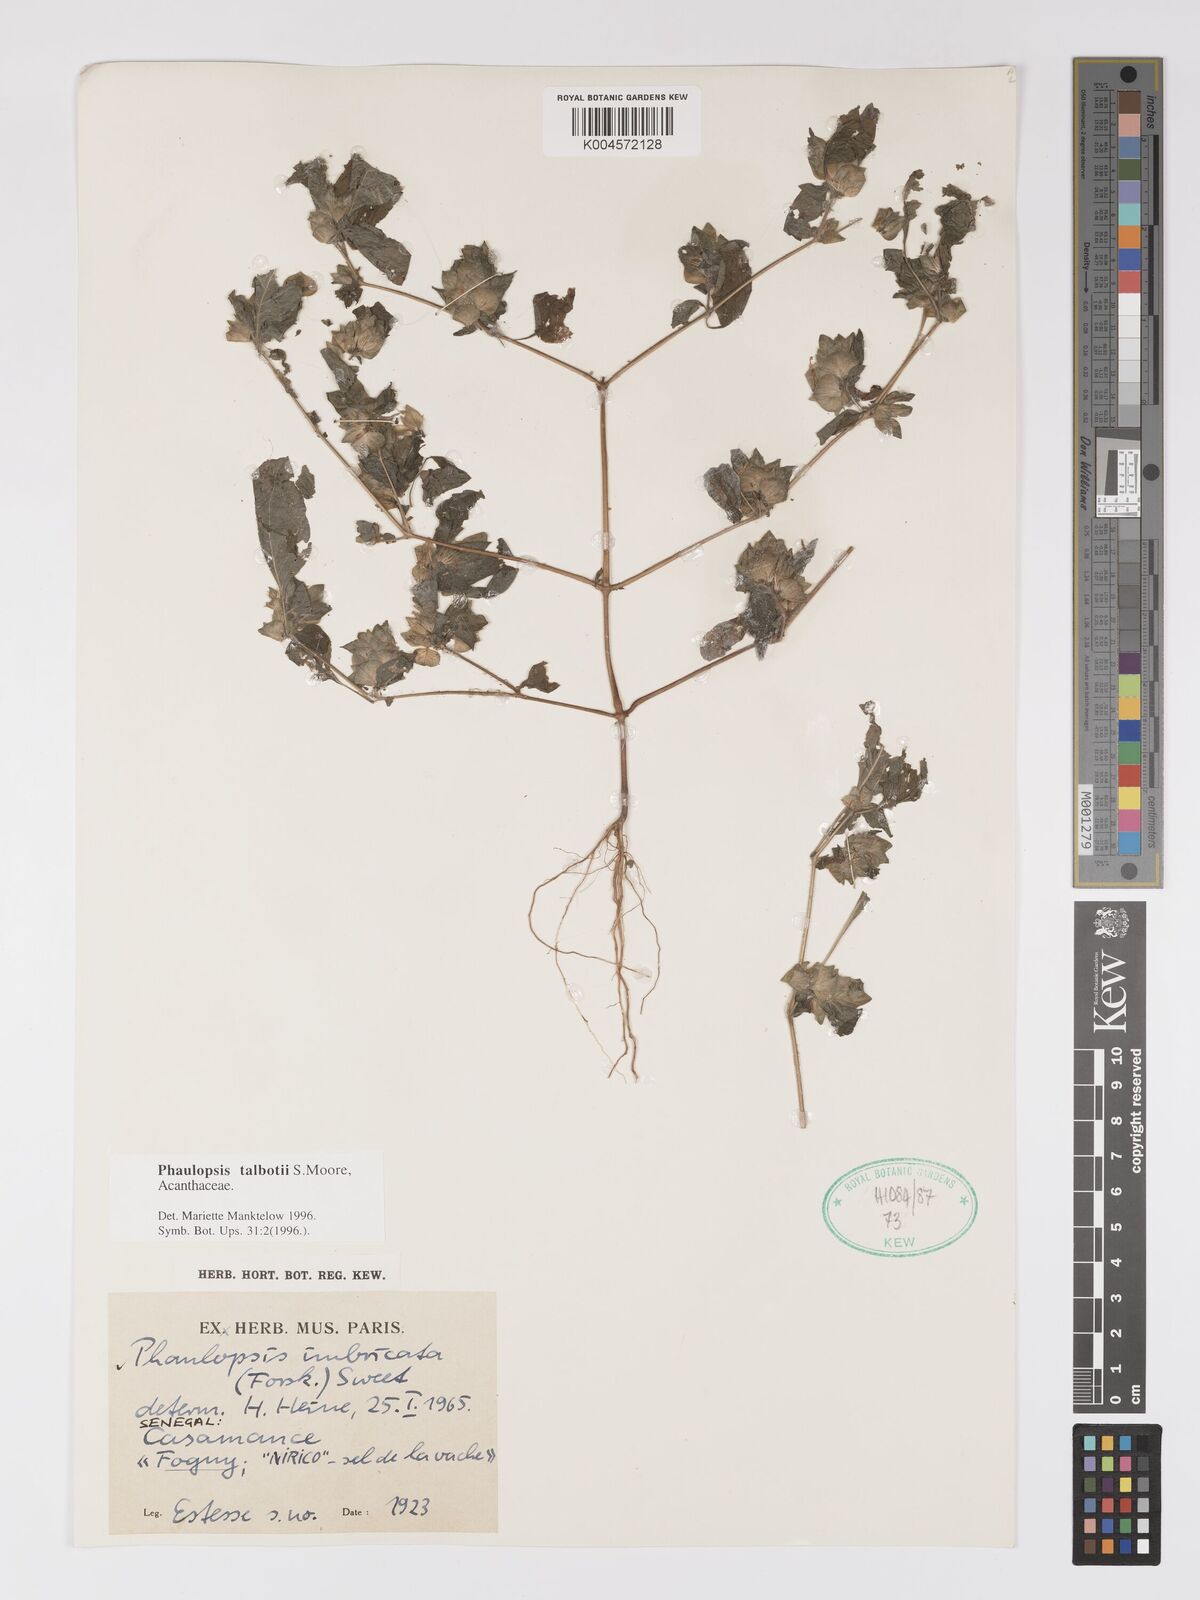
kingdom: Plantae
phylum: Tracheophyta
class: Magnoliopsida
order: Lamiales
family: Acanthaceae
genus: Phaulopsis
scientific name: Phaulopsis talbotii
